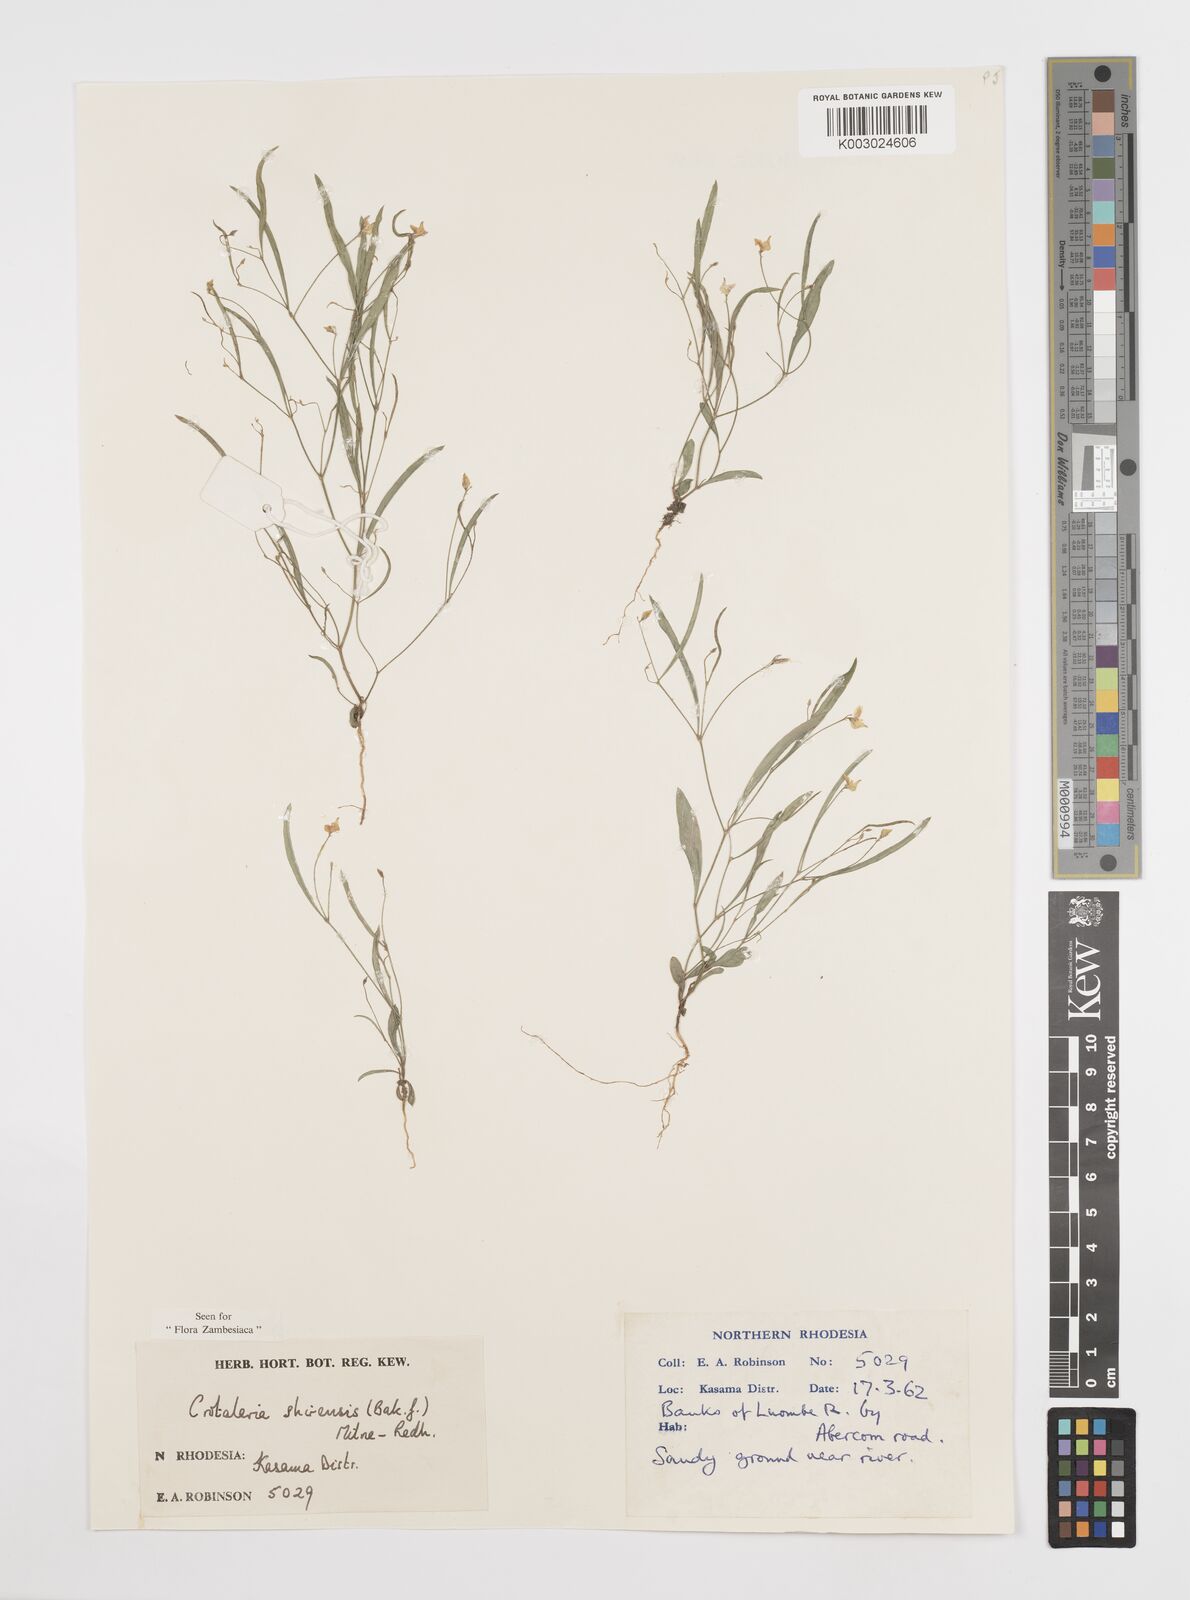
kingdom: Plantae
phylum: Tracheophyta
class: Magnoliopsida
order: Fabales
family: Fabaceae
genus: Crotalaria
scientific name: Crotalaria shirensis
